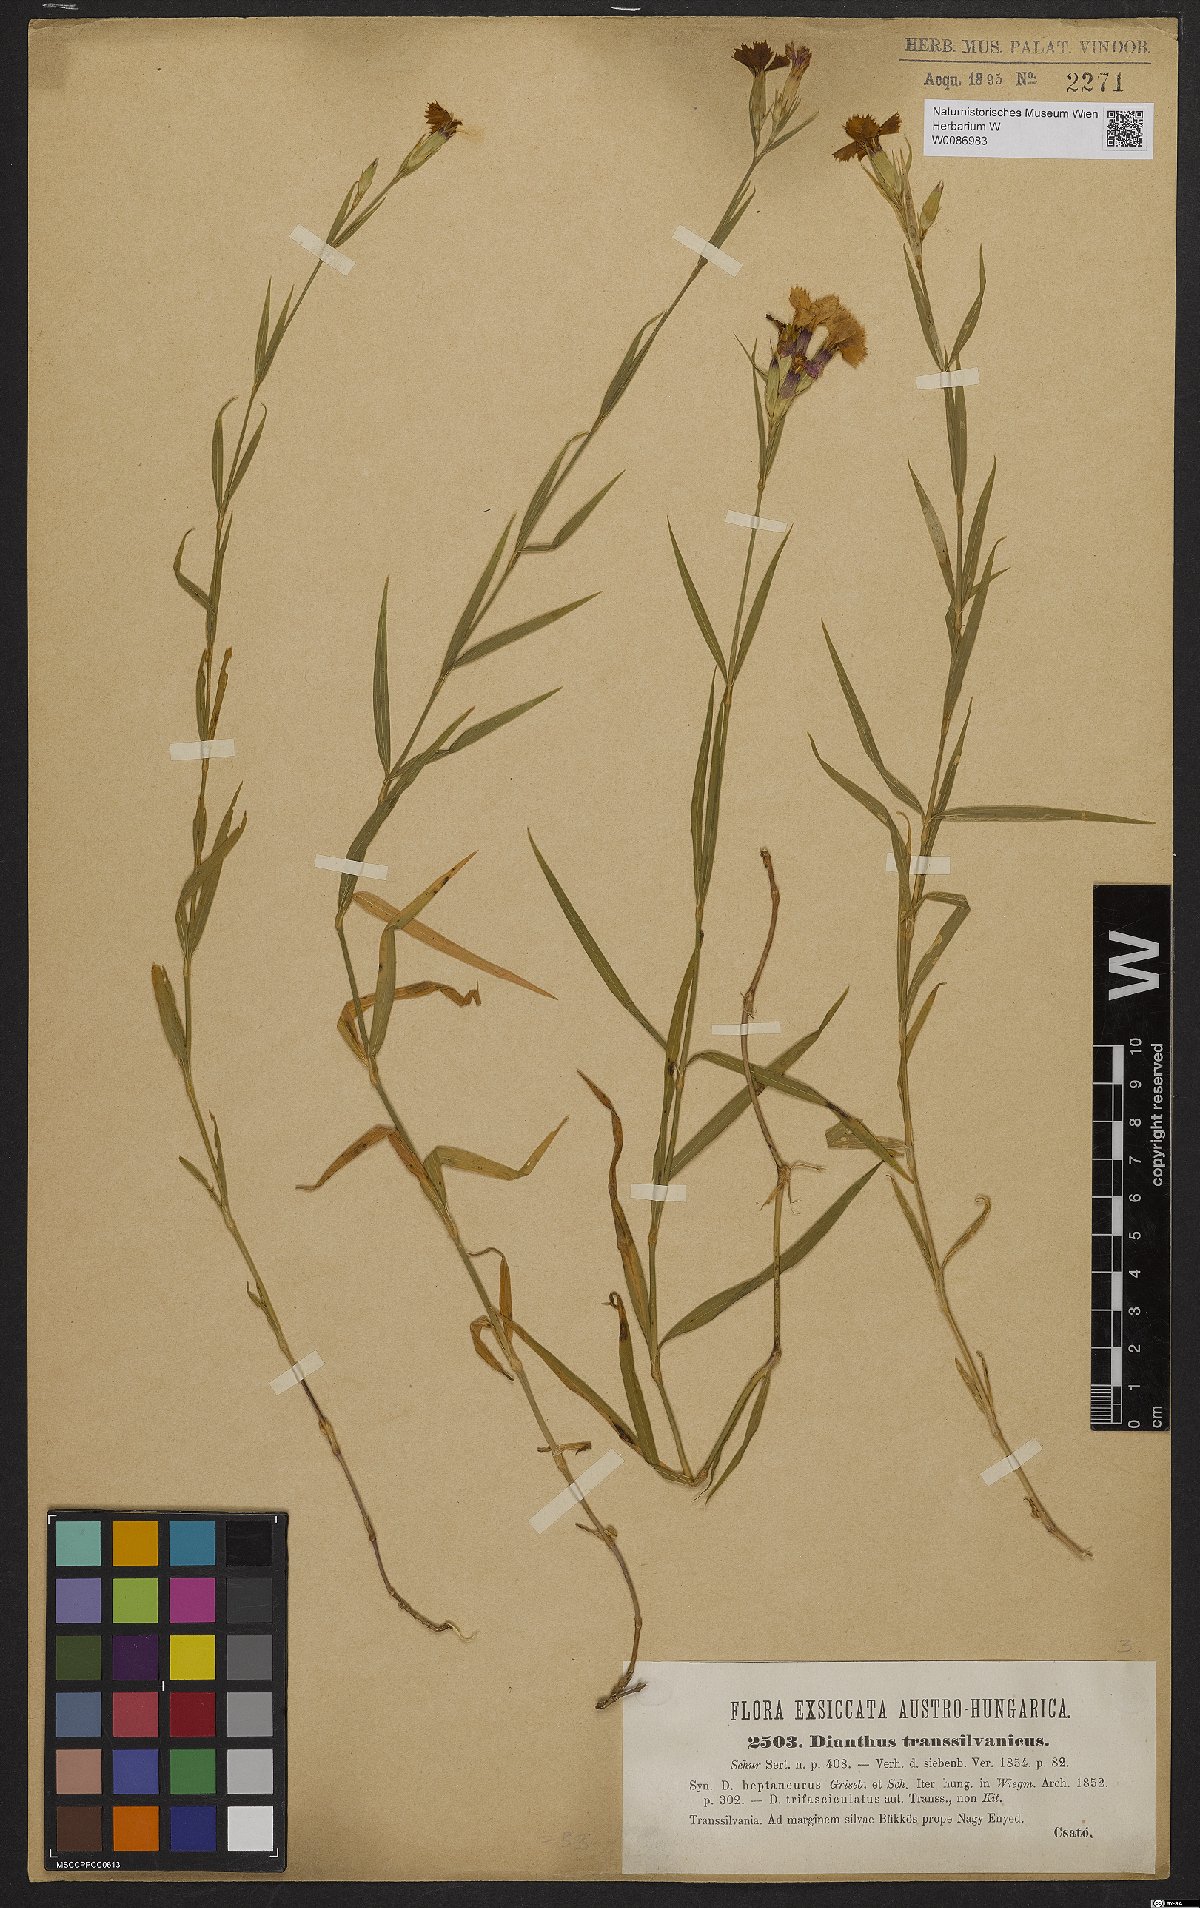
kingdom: Plantae
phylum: Tracheophyta
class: Magnoliopsida
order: Caryophyllales
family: Caryophyllaceae
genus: Dianthus
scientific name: Dianthus trifasciculatus
